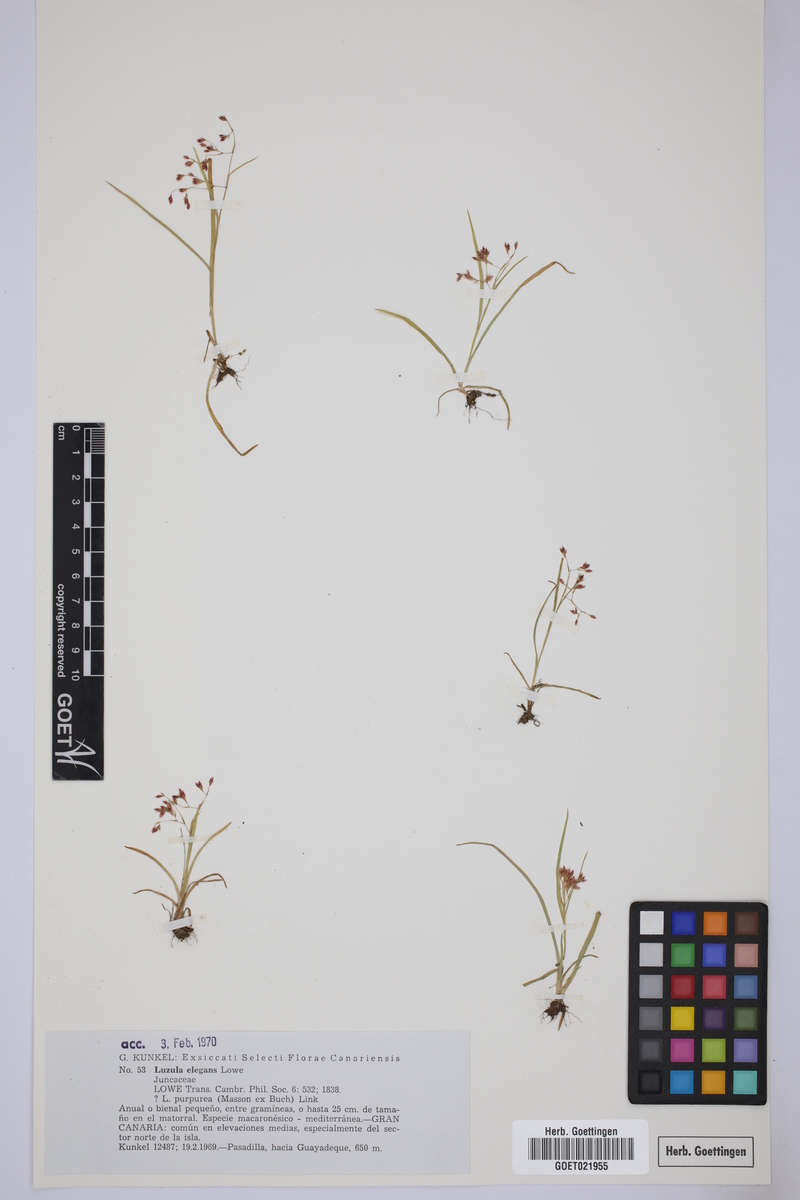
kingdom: Plantae
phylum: Tracheophyta
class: Liliopsida
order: Poales
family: Juncaceae
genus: Luzula
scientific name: Luzula elegans
